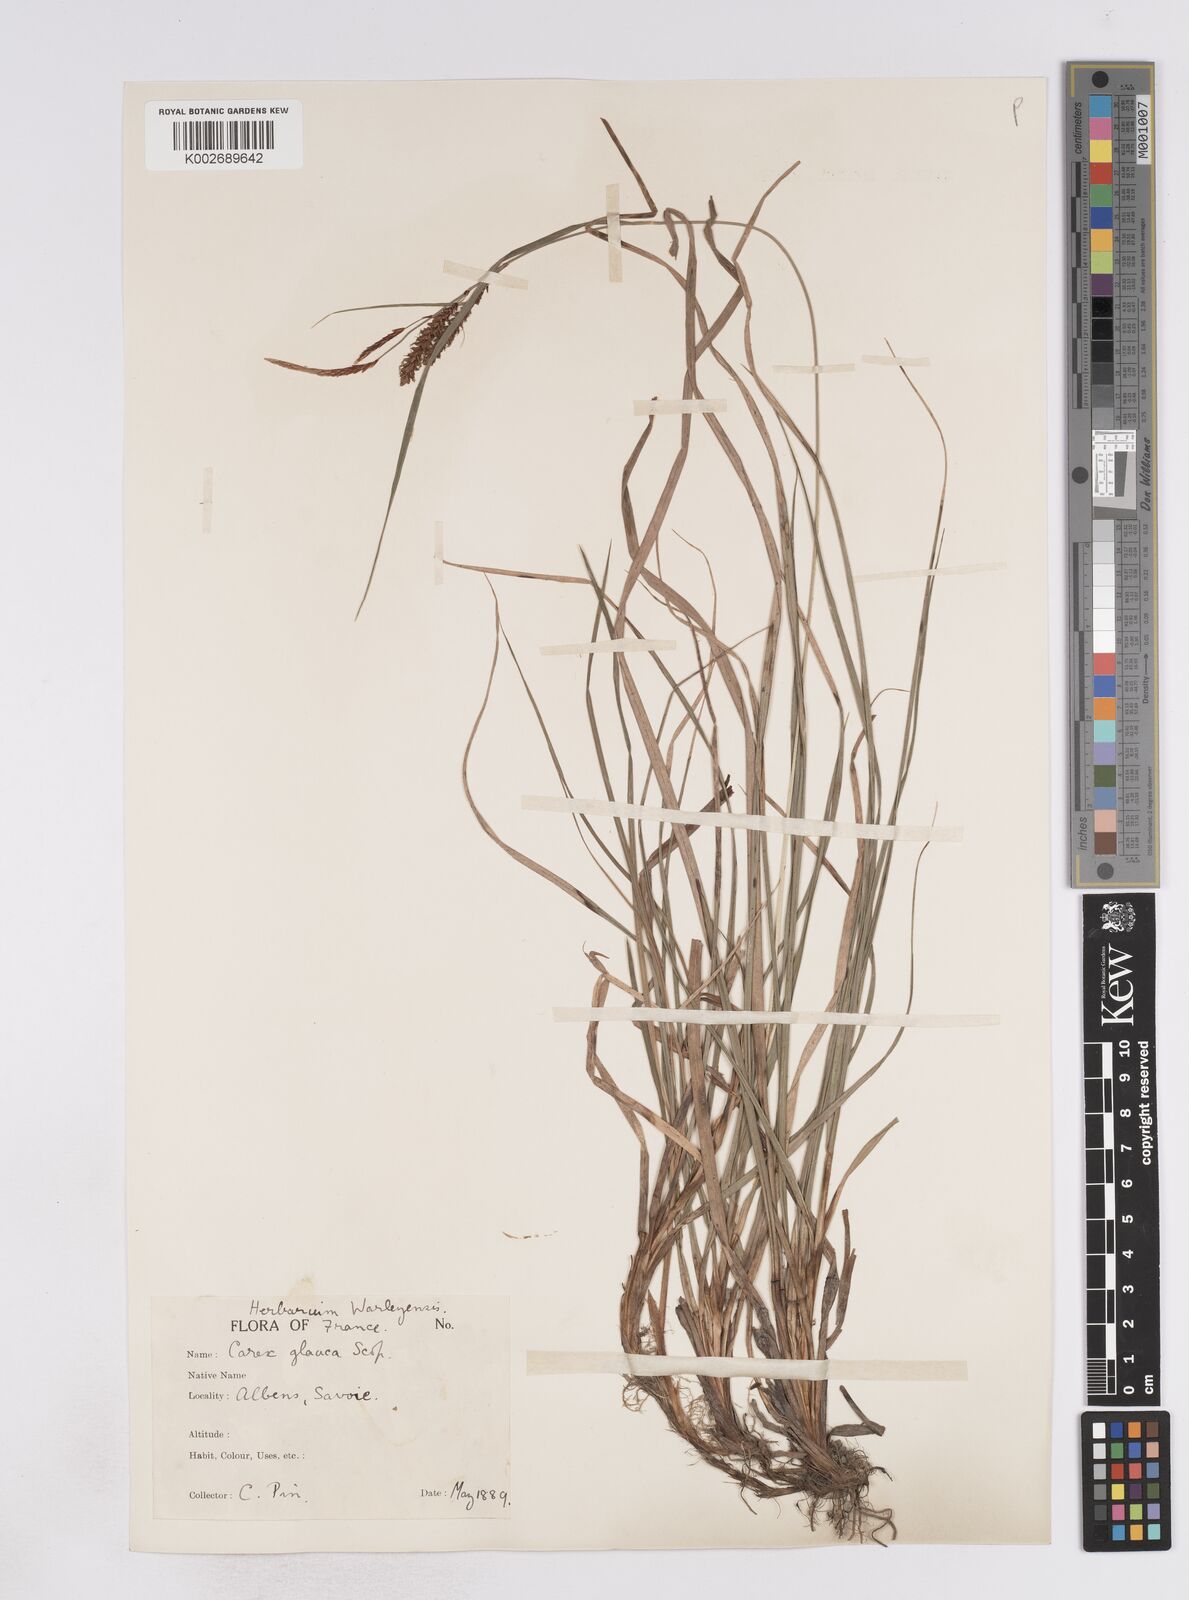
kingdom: Plantae
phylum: Tracheophyta
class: Liliopsida
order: Poales
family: Cyperaceae
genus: Carex
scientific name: Carex flacca
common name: Glaucous sedge
